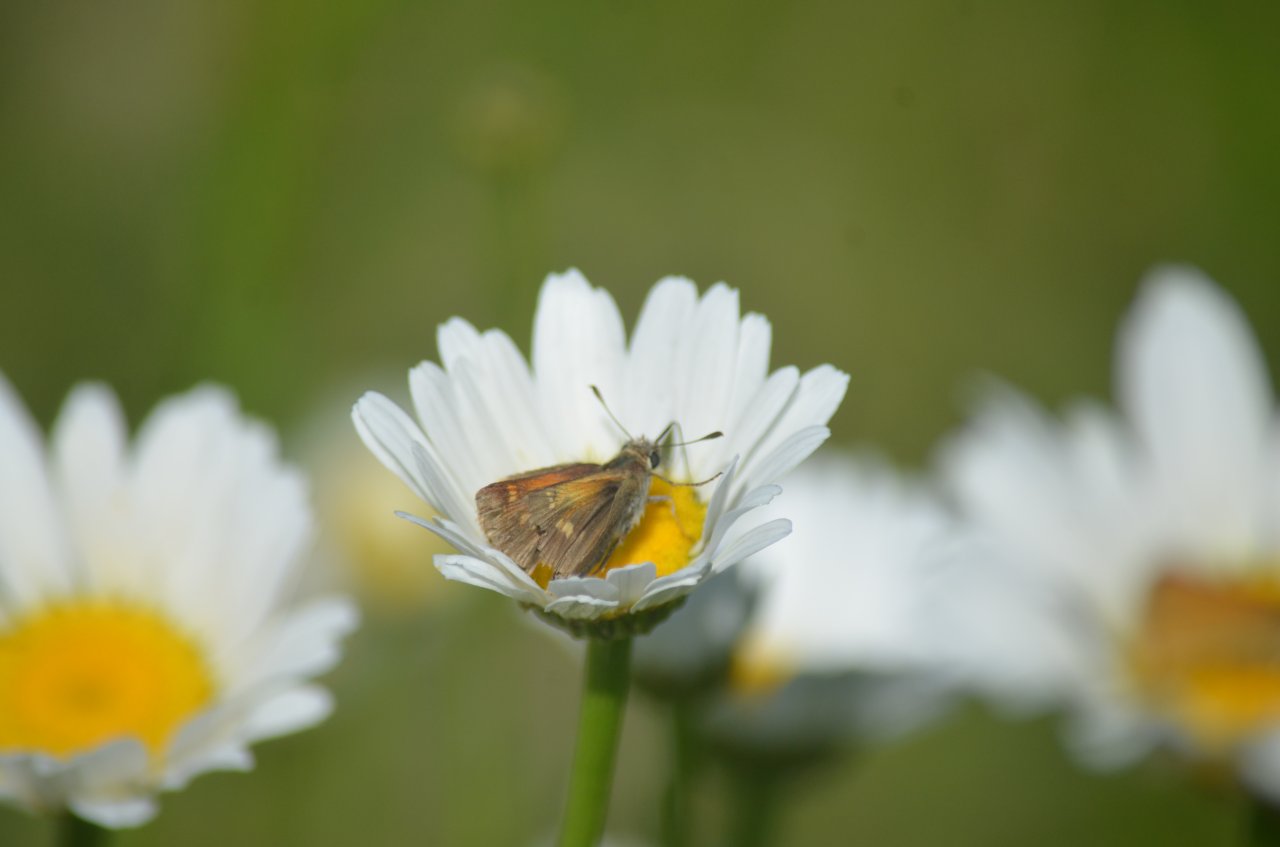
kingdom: Animalia
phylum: Arthropoda
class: Insecta
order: Lepidoptera
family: Hesperiidae
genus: Polites
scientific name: Polites themistocles
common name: Tawny-edged Skipper
